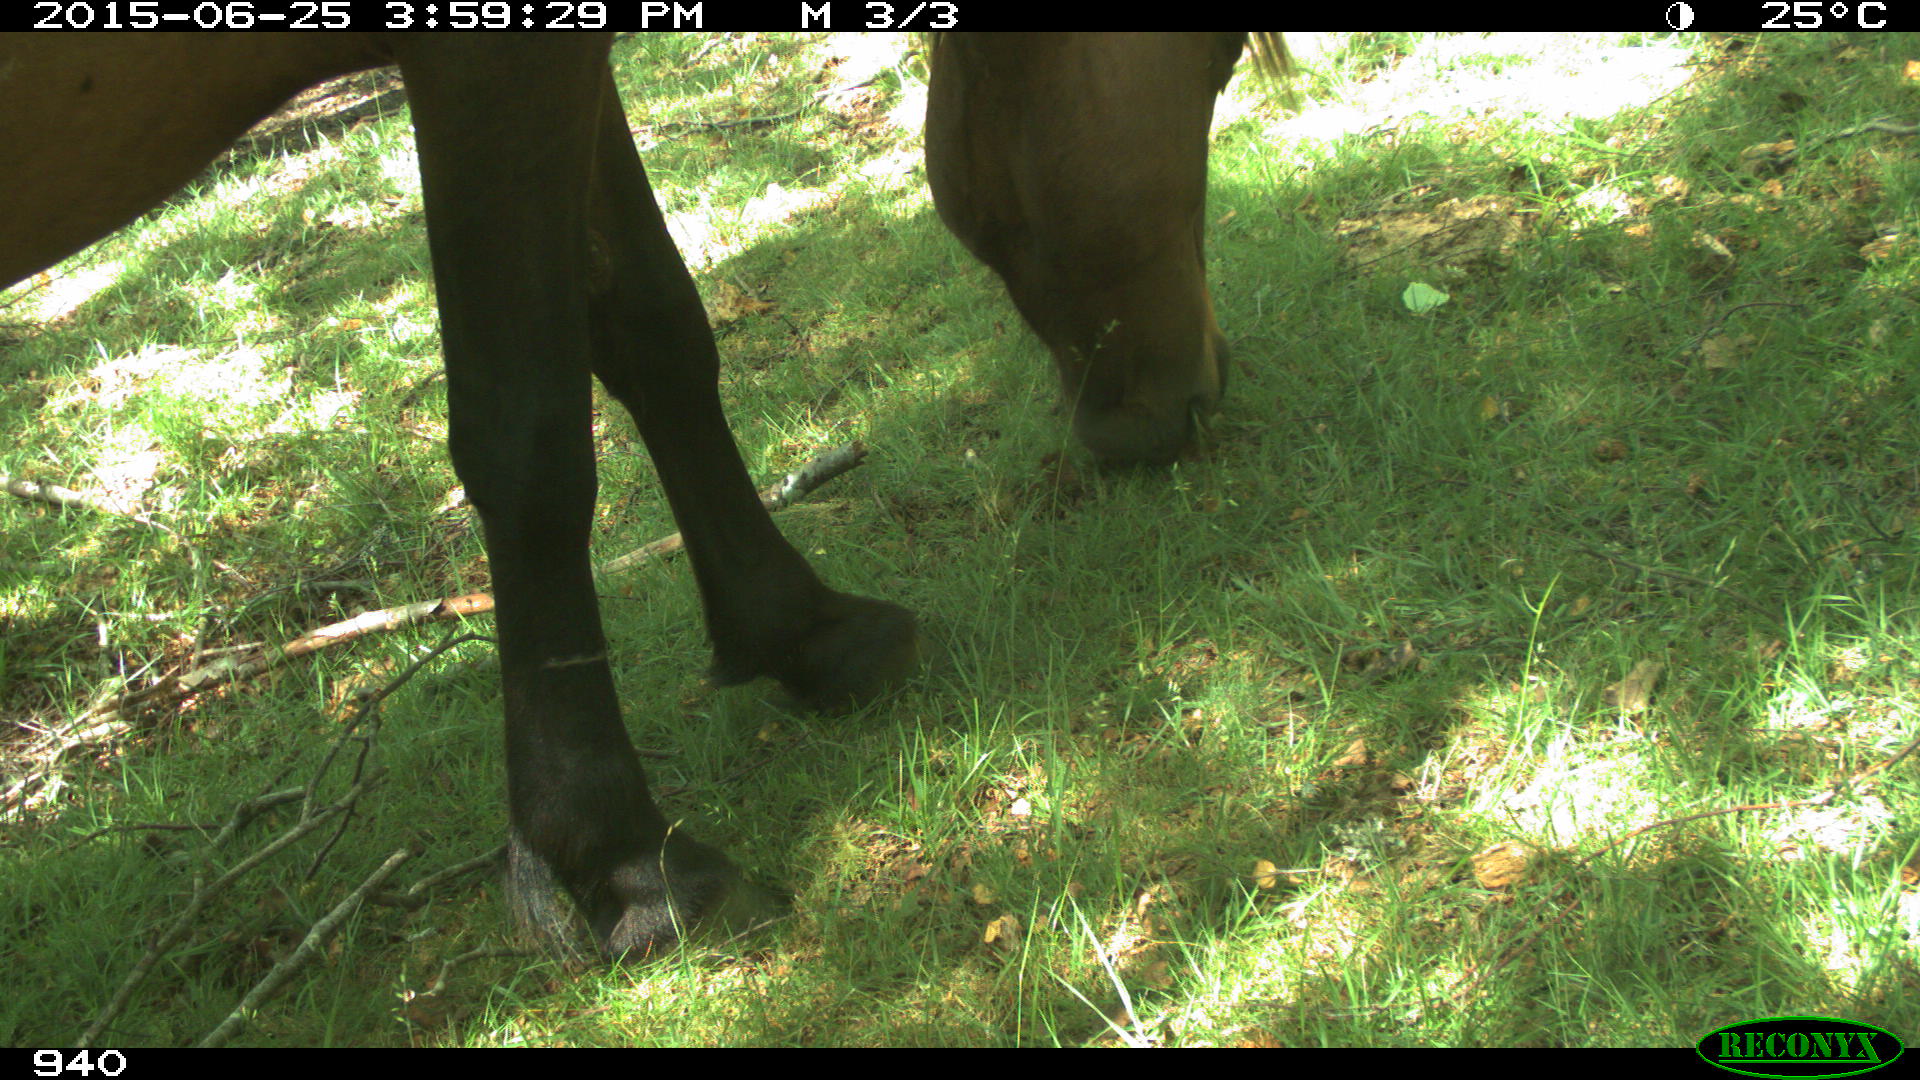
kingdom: Animalia
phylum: Chordata
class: Mammalia
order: Perissodactyla
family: Equidae
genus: Equus
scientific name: Equus caballus
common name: Horse
